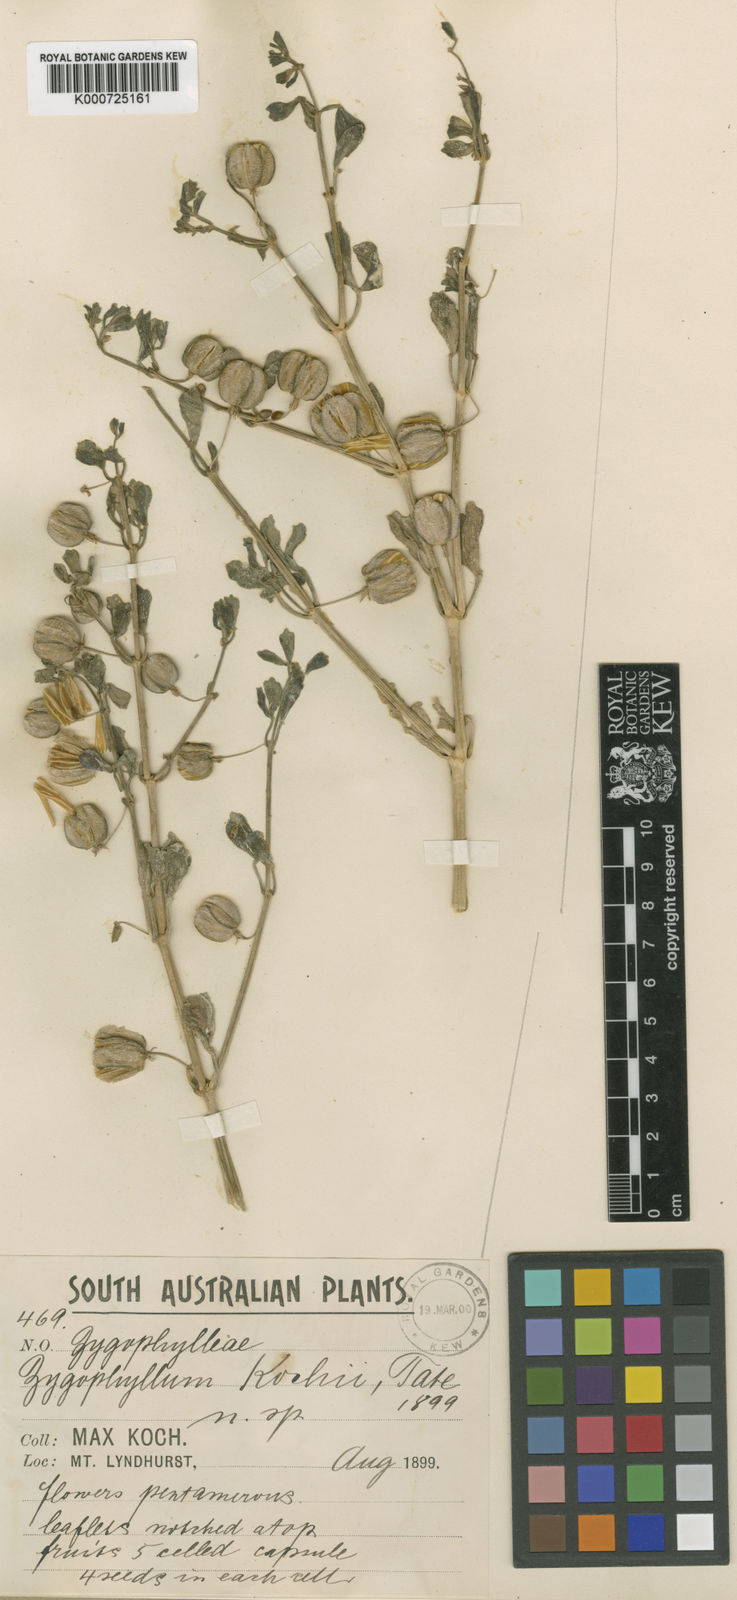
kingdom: Plantae
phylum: Tracheophyta
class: Magnoliopsida
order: Zygophyllales
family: Zygophyllaceae
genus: Roepera
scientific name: Roepera kochii
